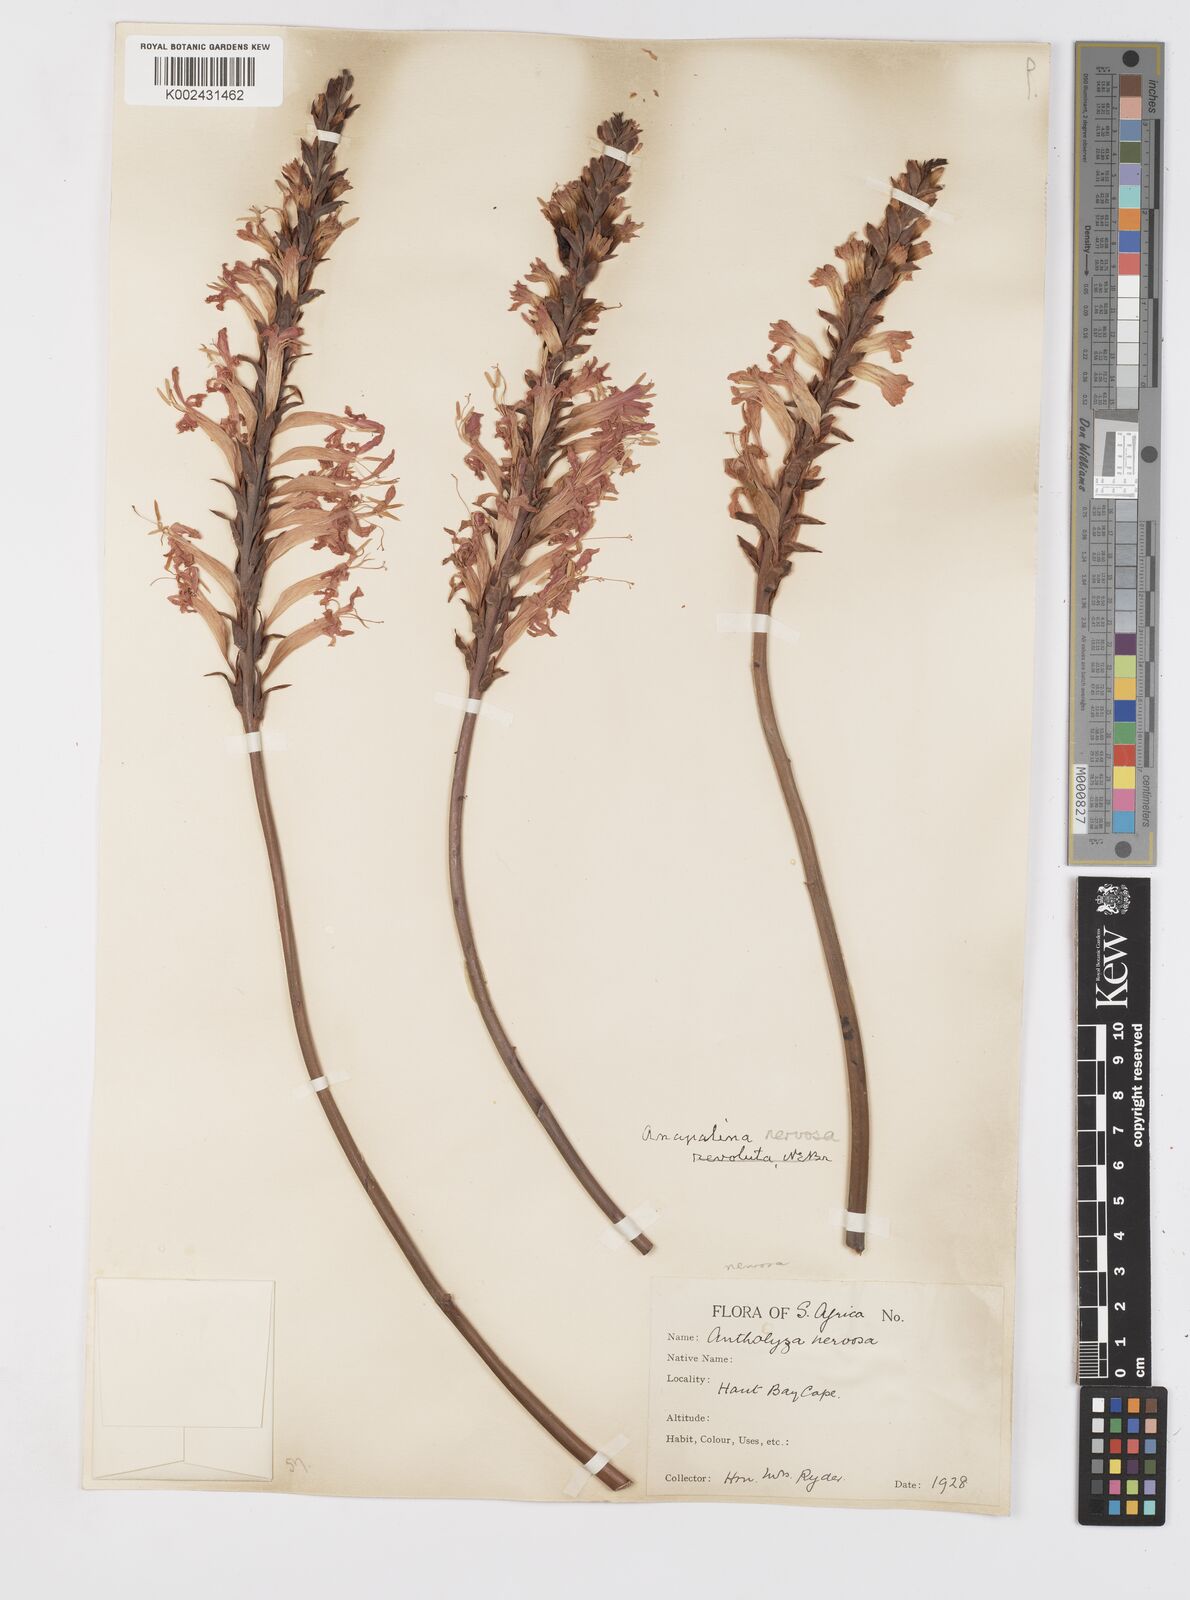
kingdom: Plantae
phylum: Tracheophyta
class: Liliopsida
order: Asparagales
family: Iridaceae
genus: Tritoniopsis
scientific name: Tritoniopsis nervosa
